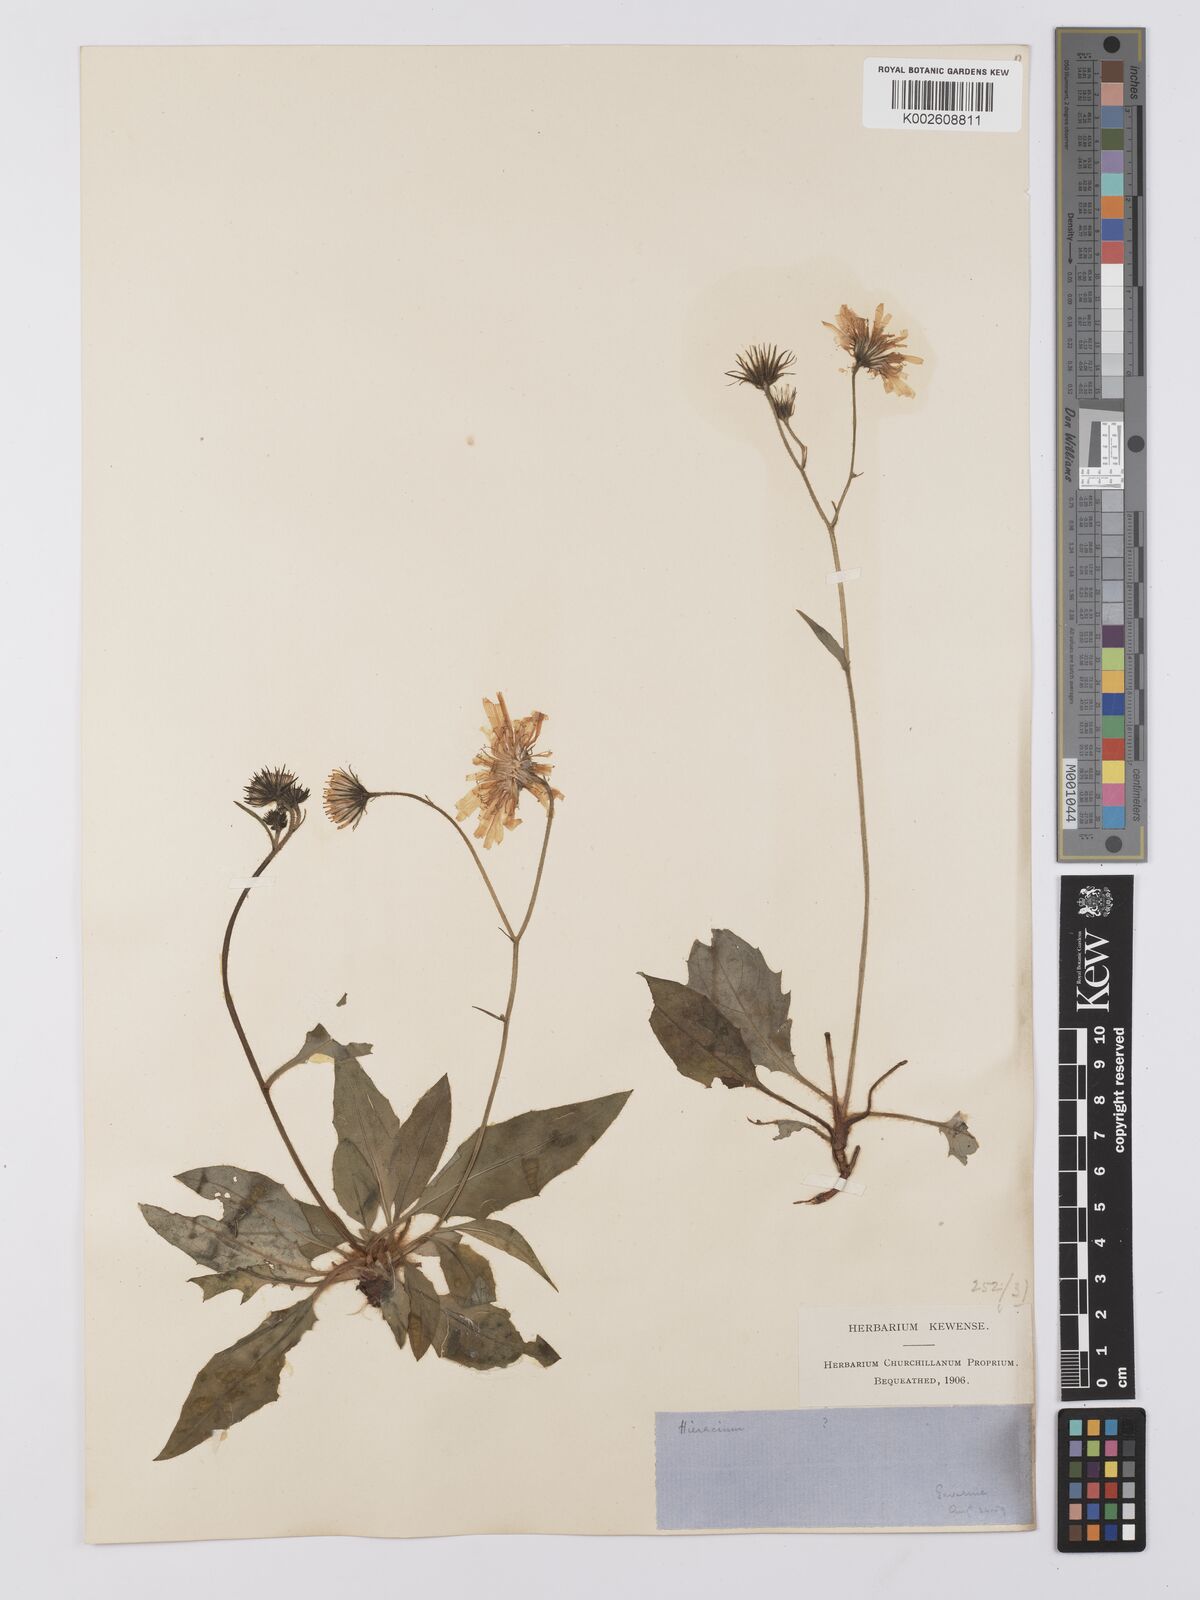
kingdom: Plantae
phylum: Tracheophyta
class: Magnoliopsida
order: Asterales
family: Asteraceae
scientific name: Asteraceae
